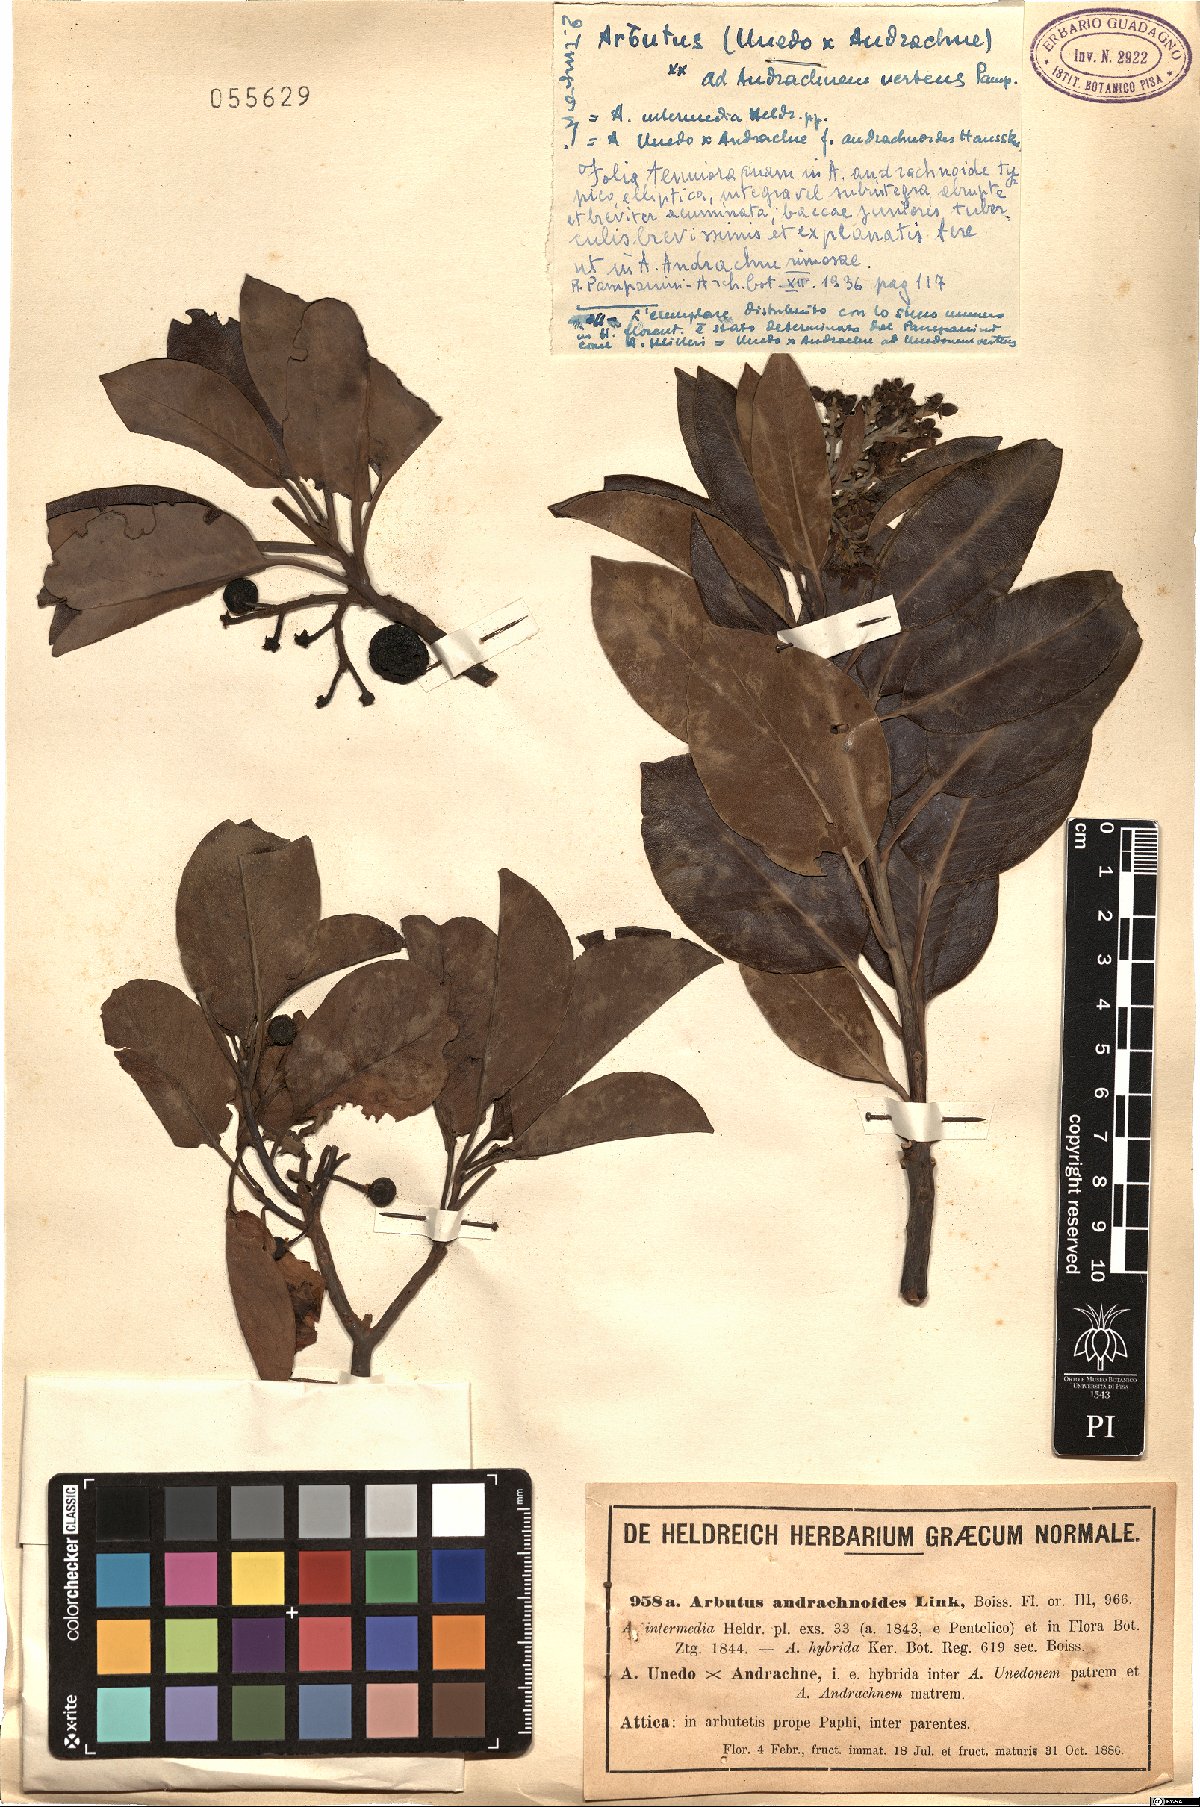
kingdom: Plantae
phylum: Tracheophyta
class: Magnoliopsida
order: Ericales
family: Ericaceae
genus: Arbutus
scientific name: Arbutus andrachnoides
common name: Hybrid strawberry-tree
